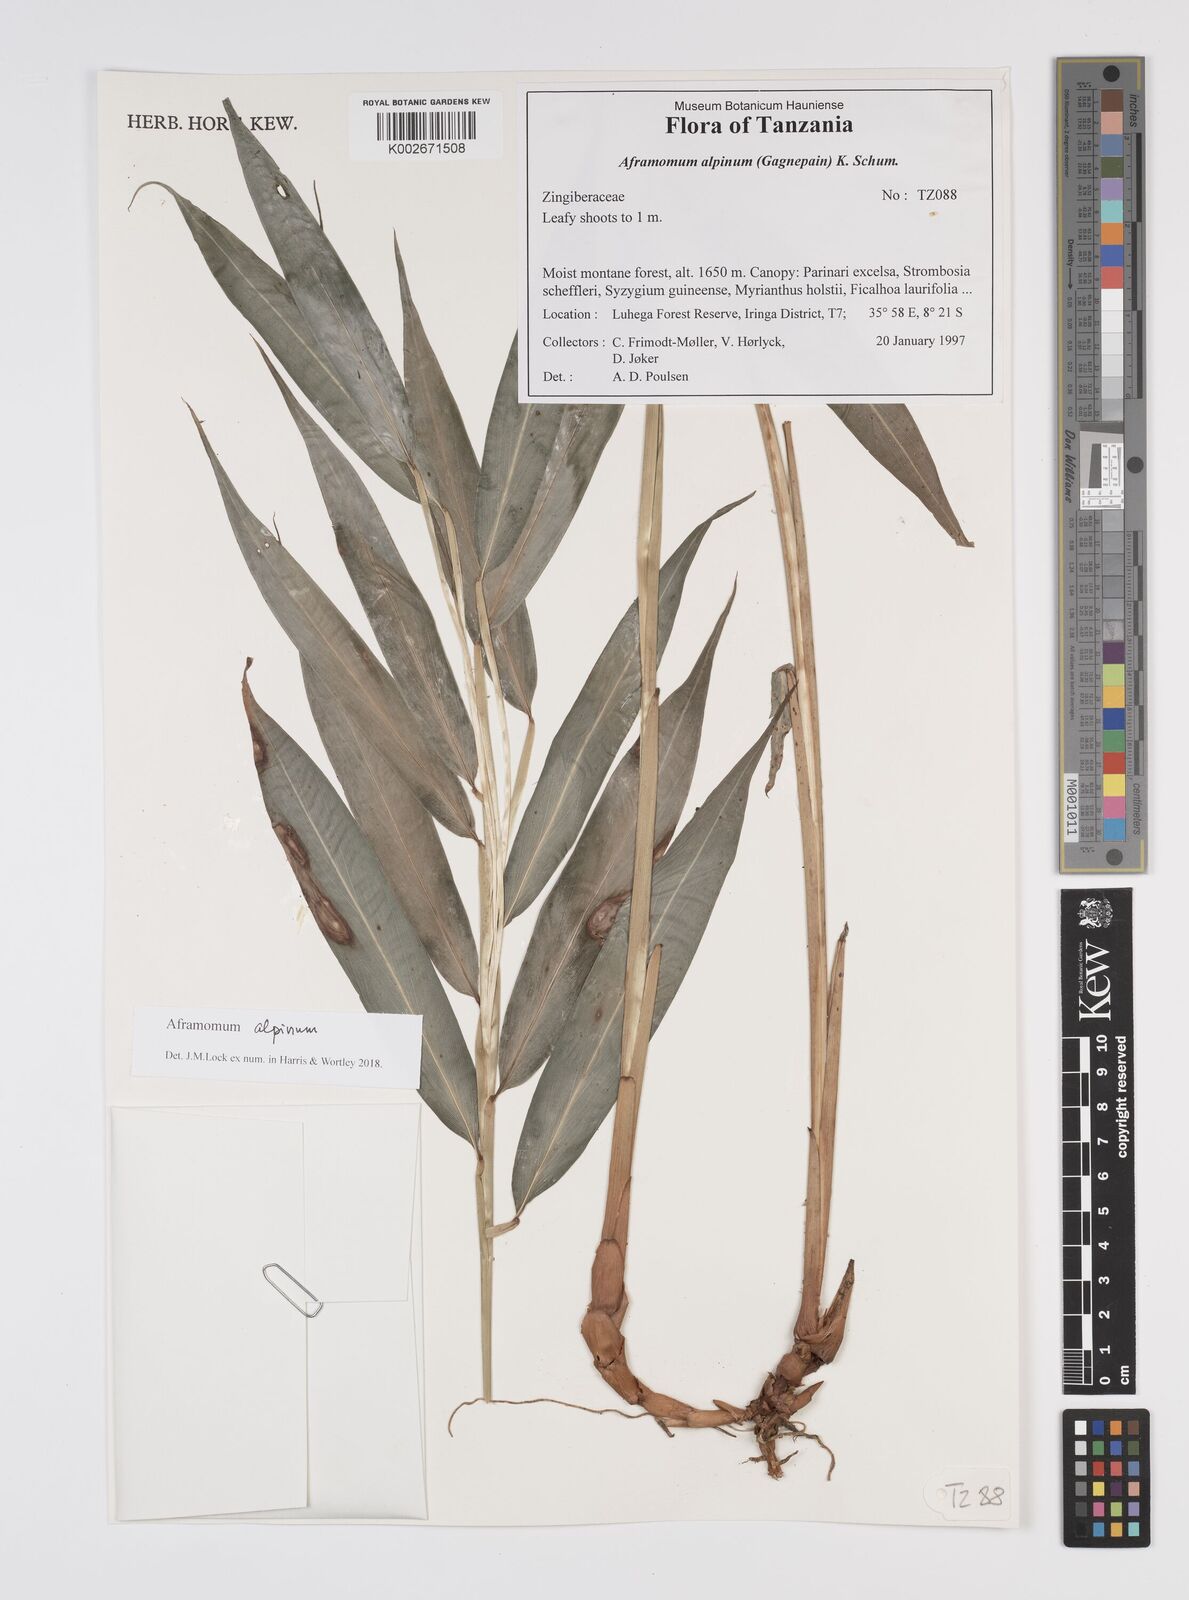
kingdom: Plantae
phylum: Tracheophyta
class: Liliopsida
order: Zingiberales
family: Zingiberaceae
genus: Aframomum
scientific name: Aframomum alpinum
